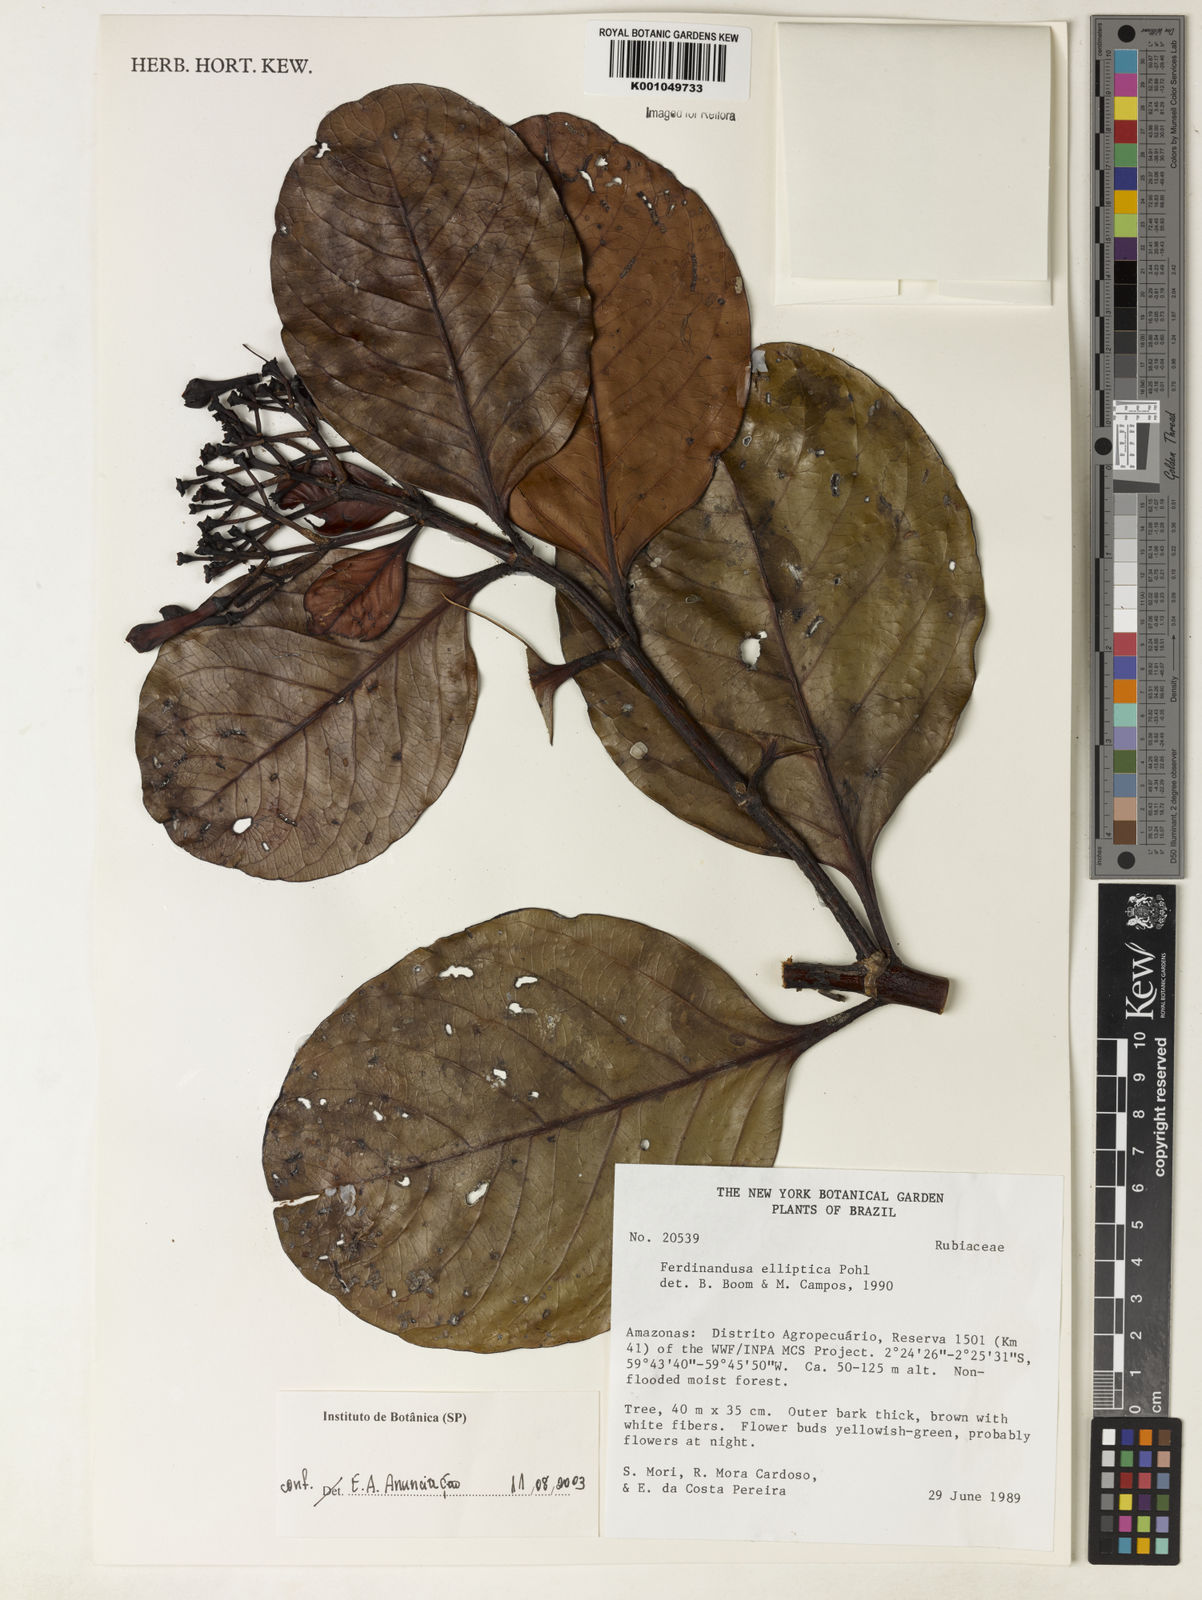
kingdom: Plantae
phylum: Tracheophyta
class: Magnoliopsida
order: Gentianales
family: Rubiaceae
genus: Ferdinandusa
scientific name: Ferdinandusa elliptica
